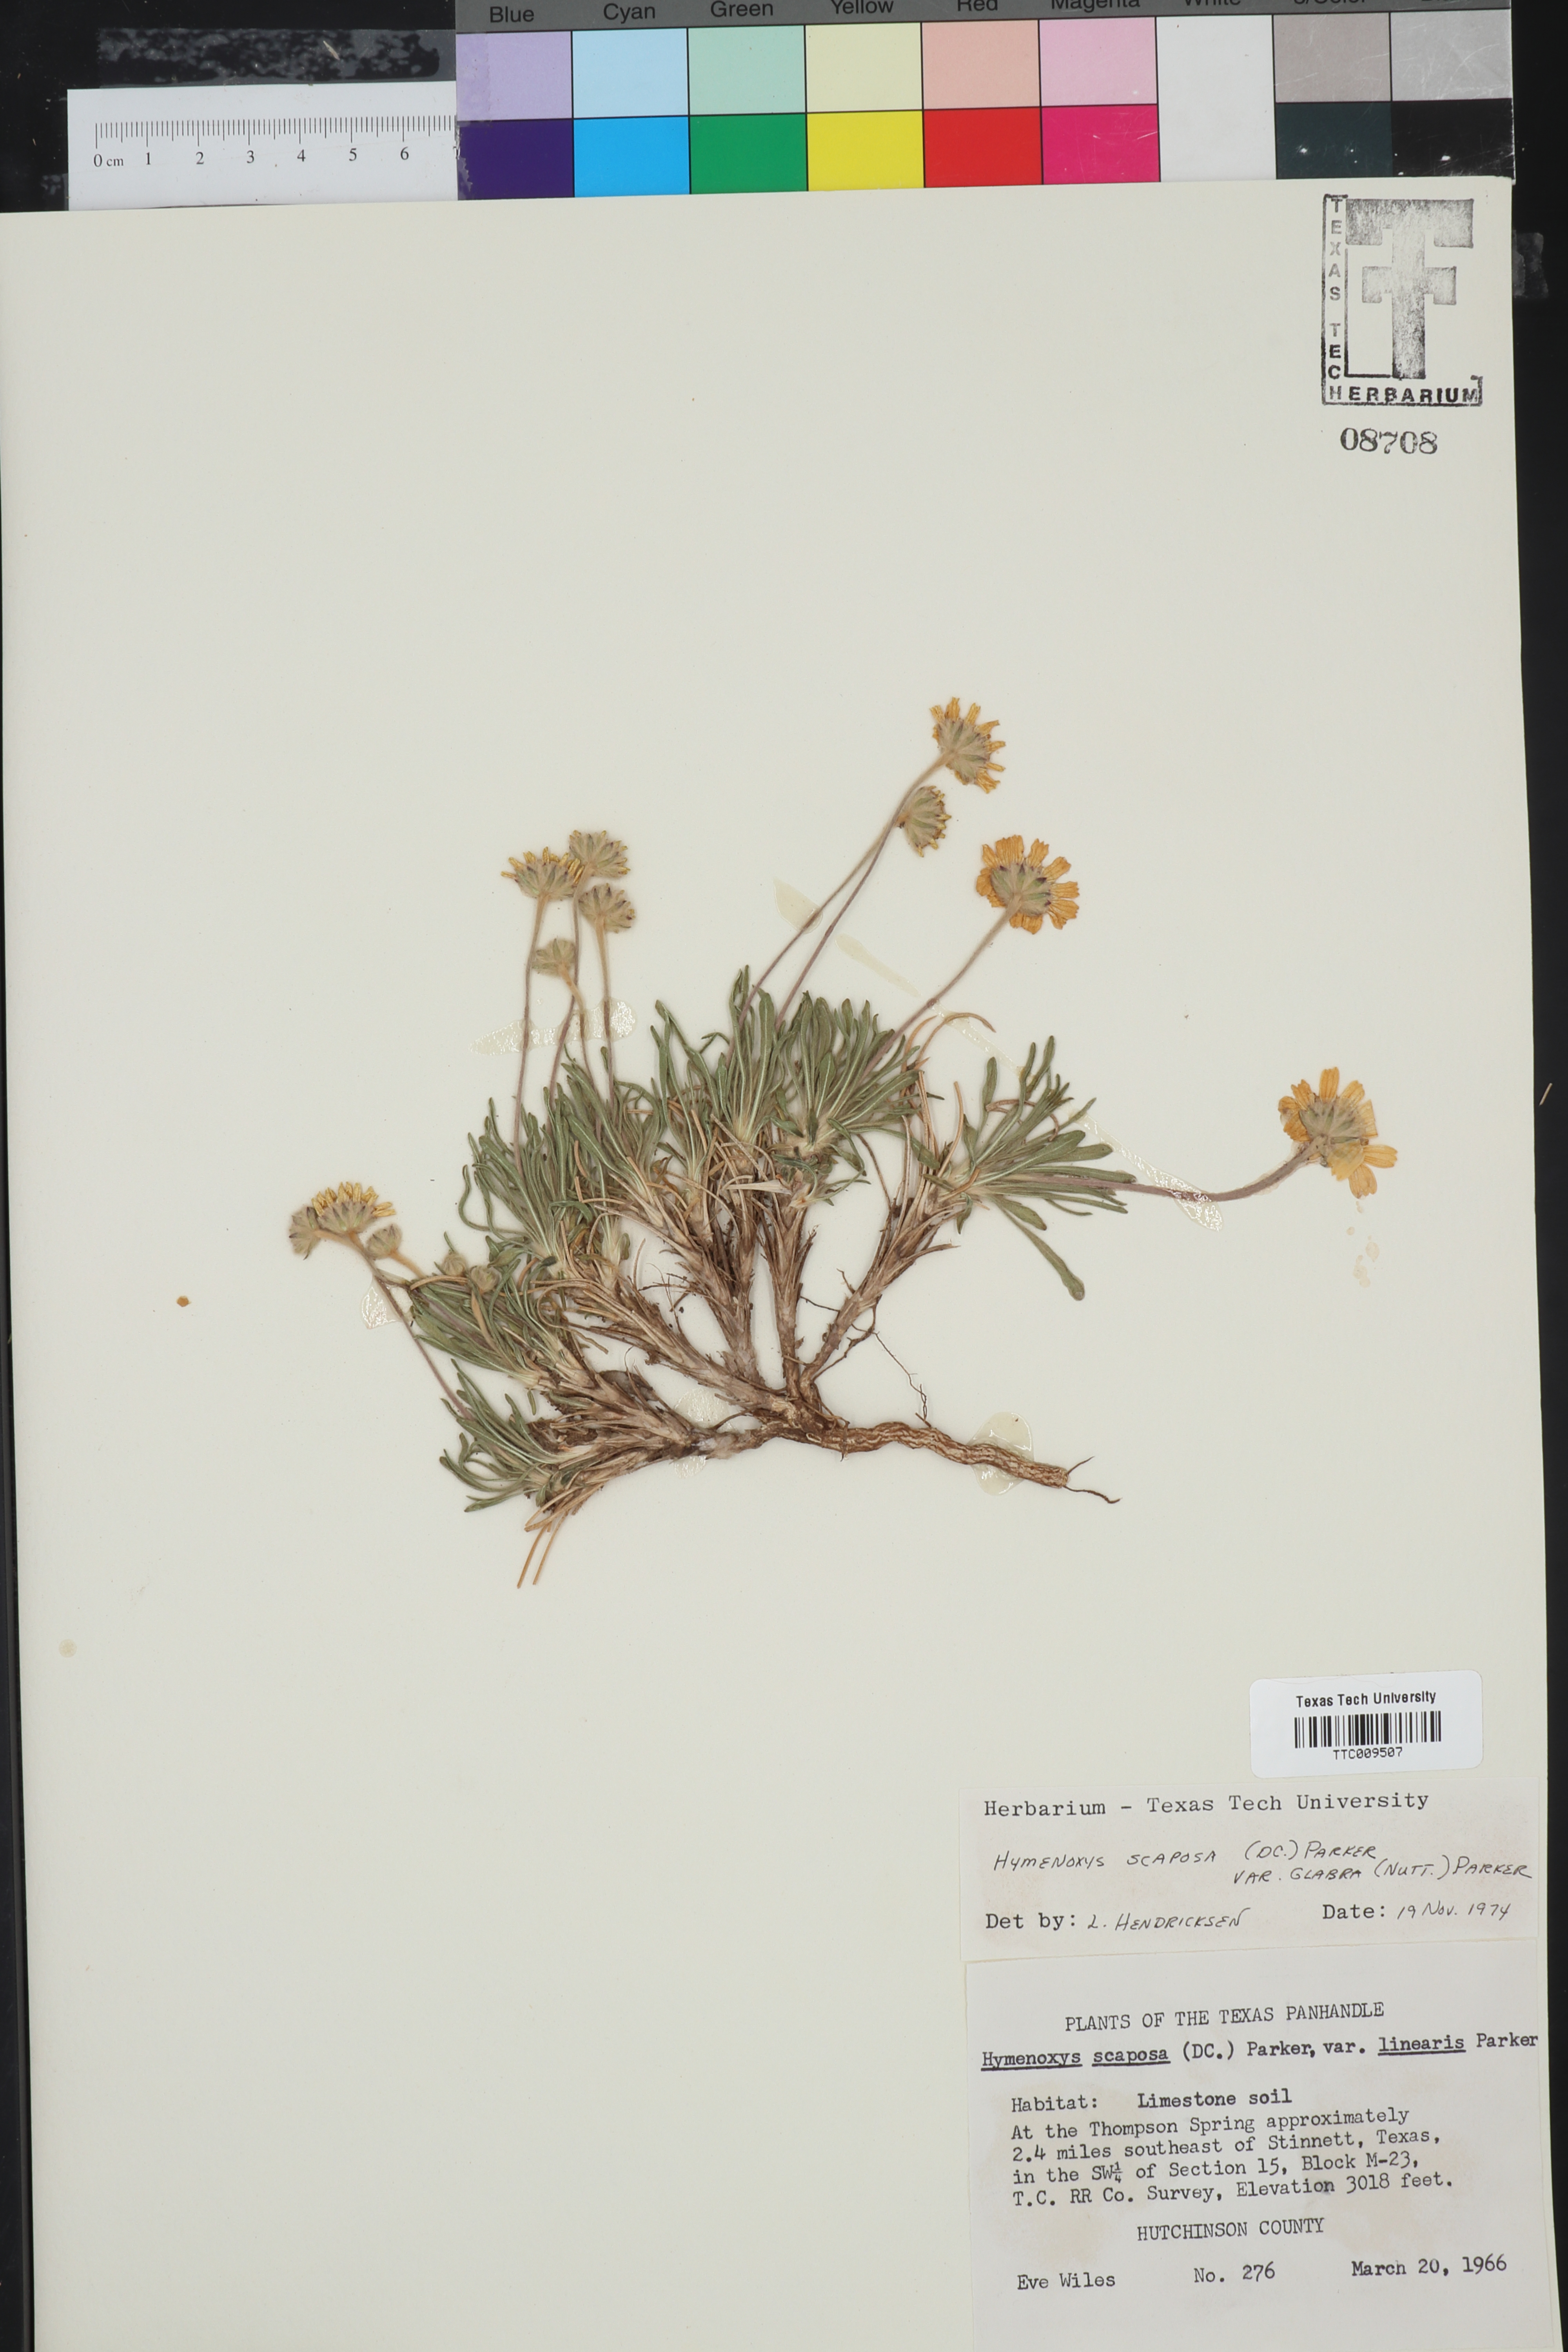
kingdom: Plantae
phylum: Tracheophyta
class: Magnoliopsida
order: Asterales
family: Asteraceae
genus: Tetraneuris
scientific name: Tetraneuris scaposa
